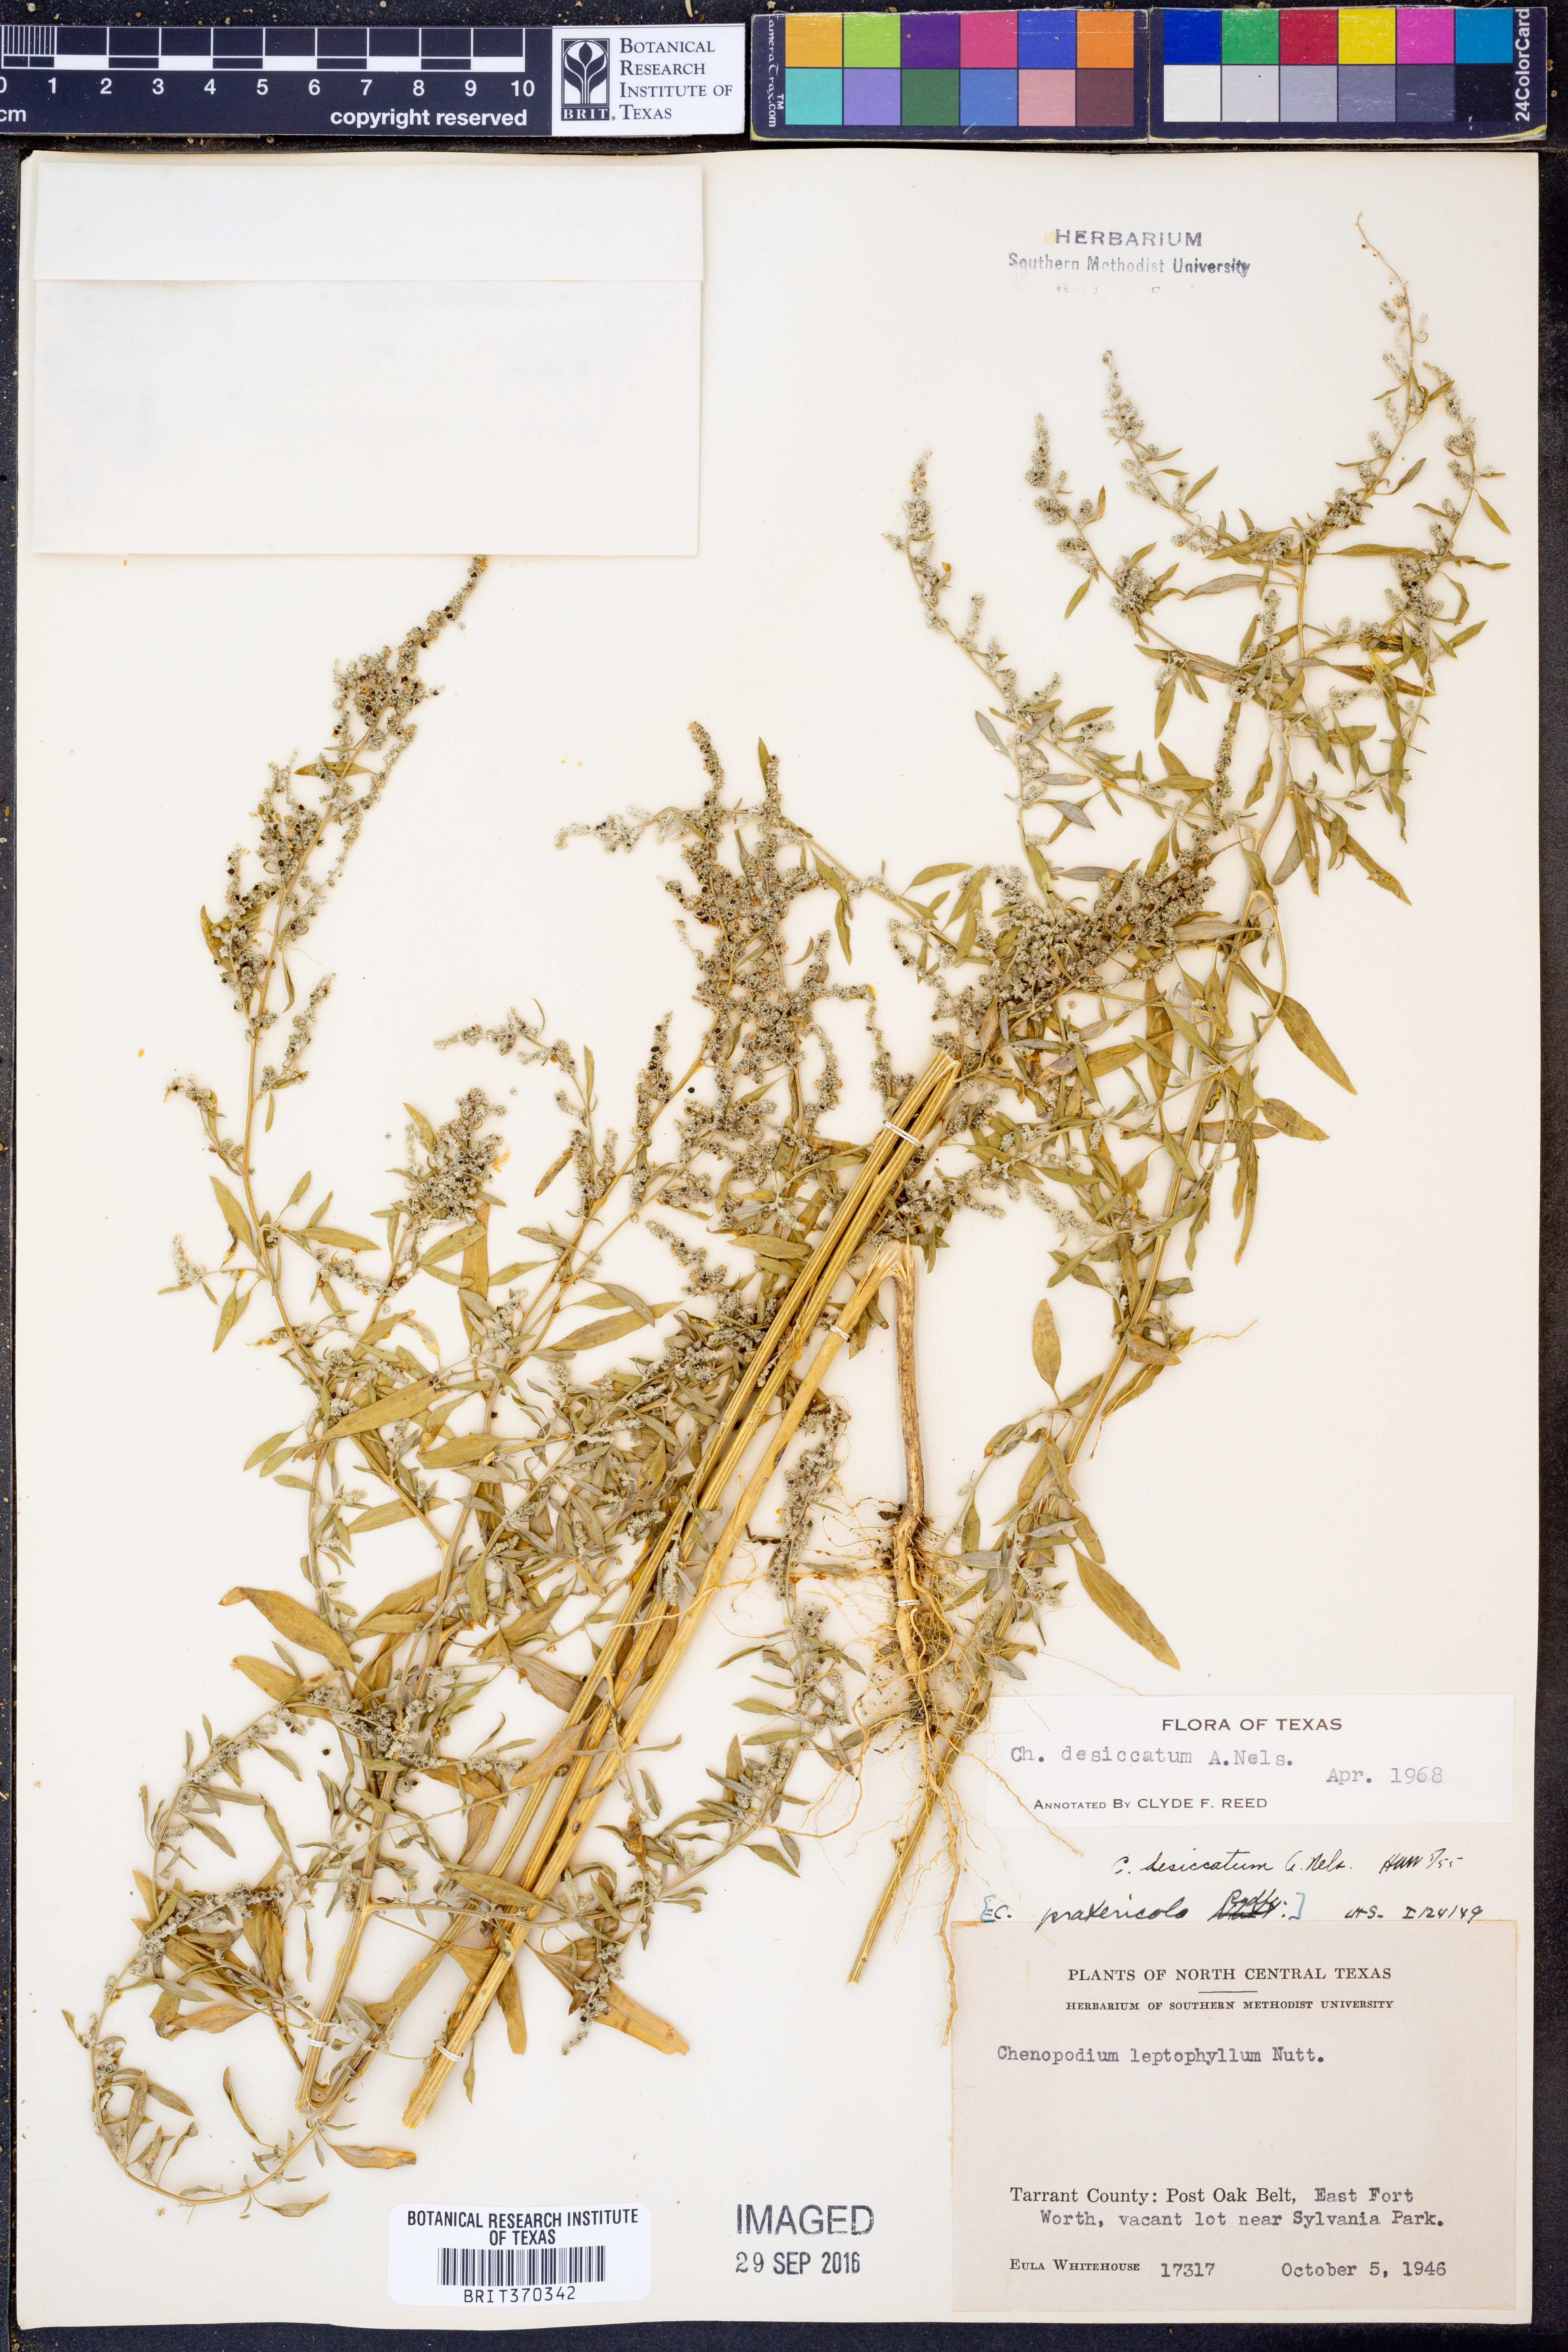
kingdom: Plantae
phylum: Tracheophyta
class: Magnoliopsida
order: Caryophyllales
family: Amaranthaceae
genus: Chenopodium
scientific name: Chenopodium desiccatum
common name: Slimleaf goosefoot
